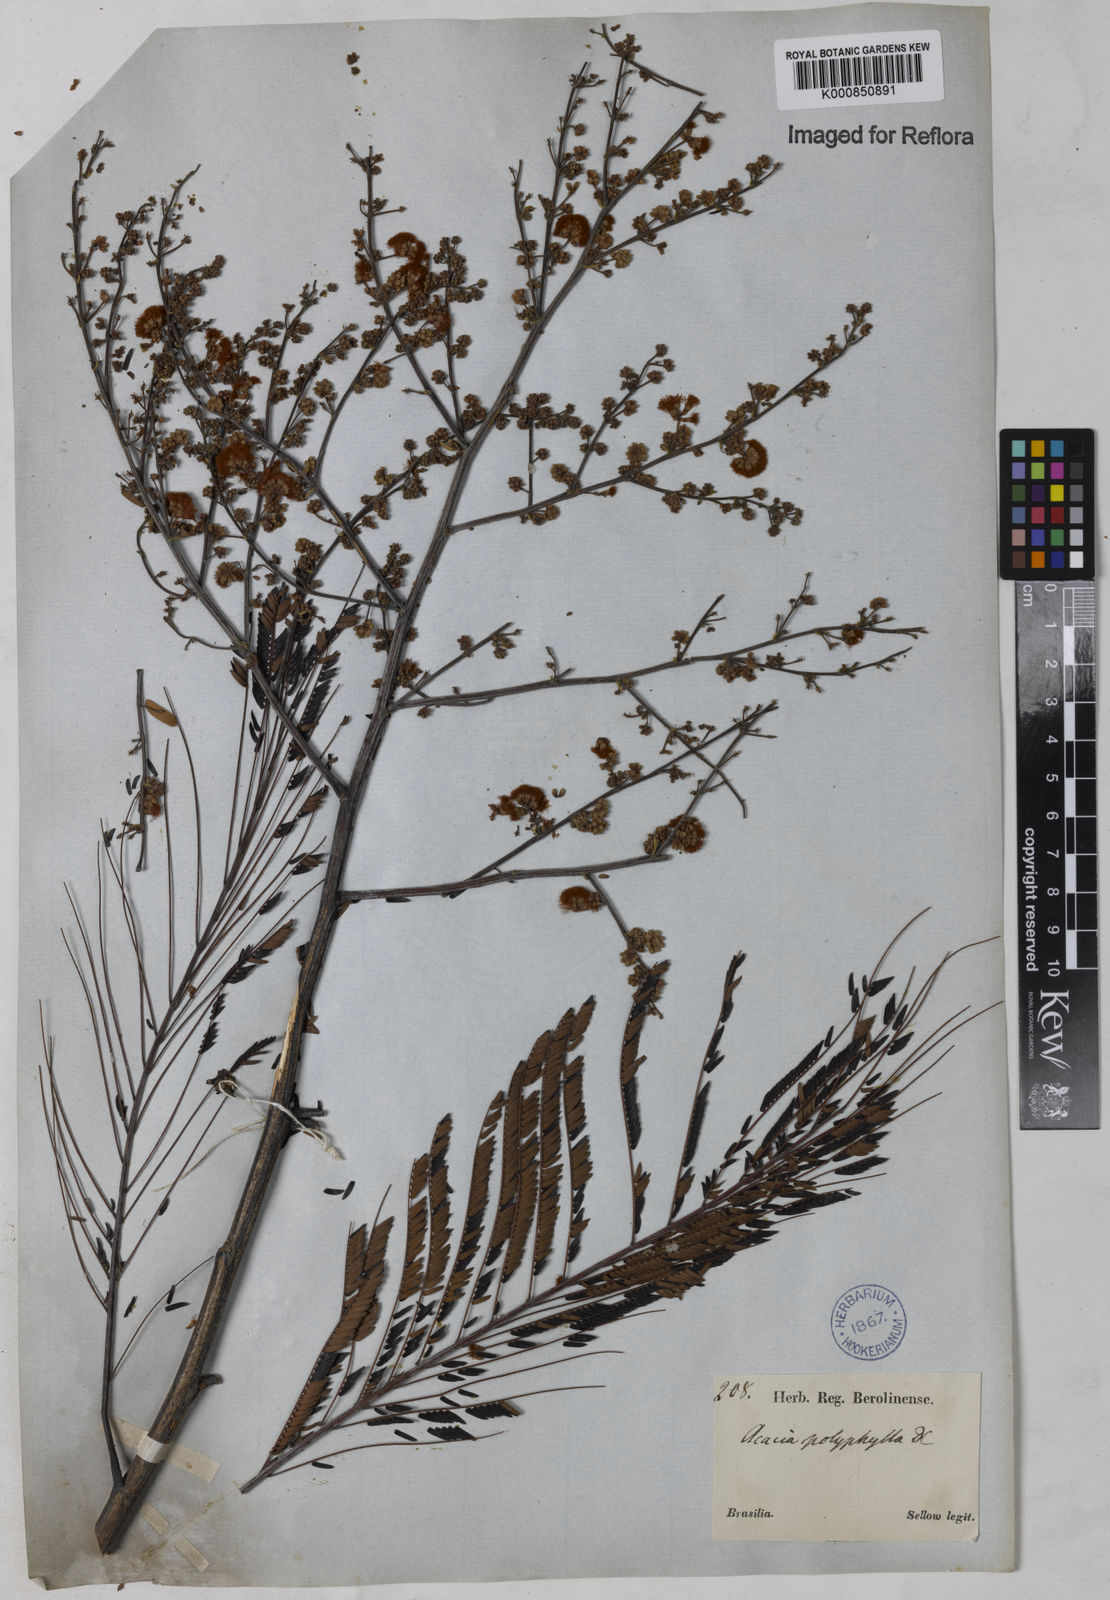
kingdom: Plantae
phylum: Tracheophyta
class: Magnoliopsida
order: Fabales
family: Fabaceae
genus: Senegalia
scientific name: Senegalia polyphylla
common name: White-tamarind
